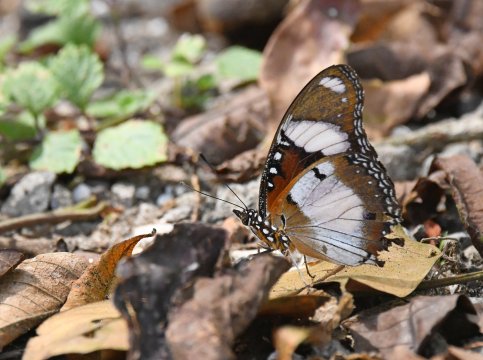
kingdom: Animalia
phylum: Arthropoda
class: Insecta
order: Lepidoptera
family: Nymphalidae
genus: Hypolimnas
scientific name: Hypolimnas misippus
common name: Mimic
